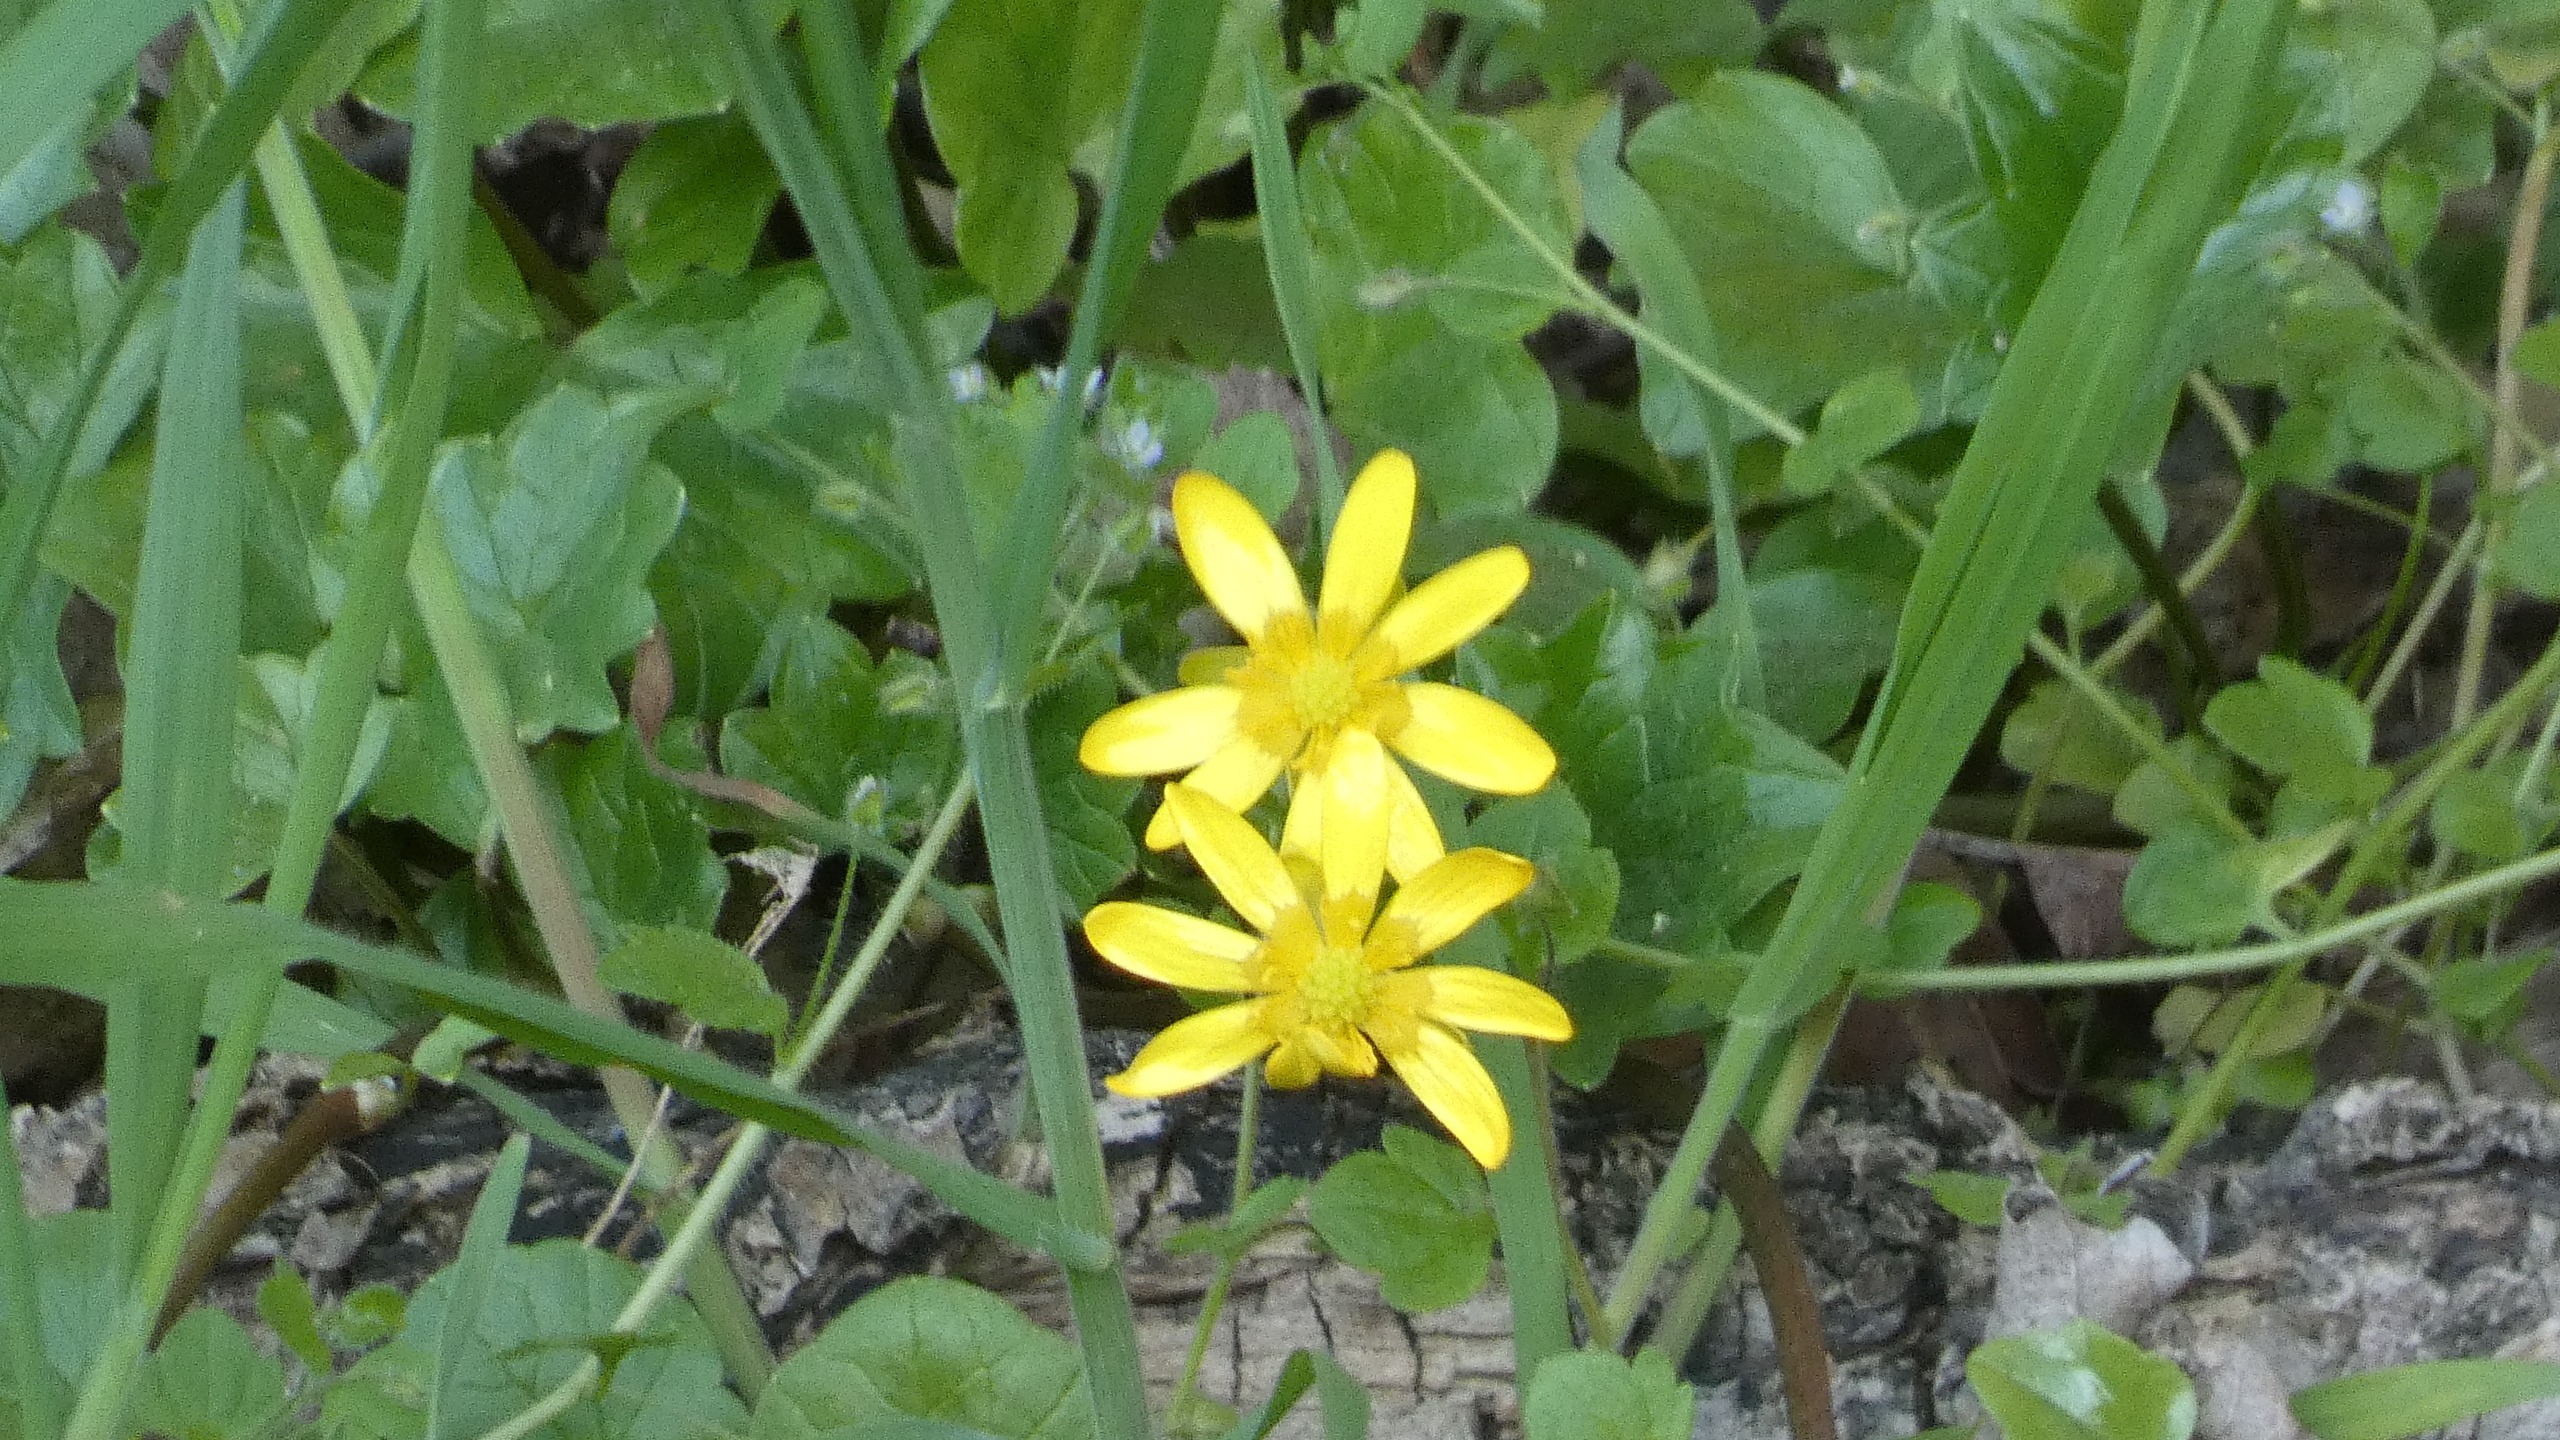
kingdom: Plantae
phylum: Tracheophyta
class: Magnoliopsida
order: Ranunculales
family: Ranunculaceae
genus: Ficaria
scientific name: Ficaria verna
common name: Vorterod
